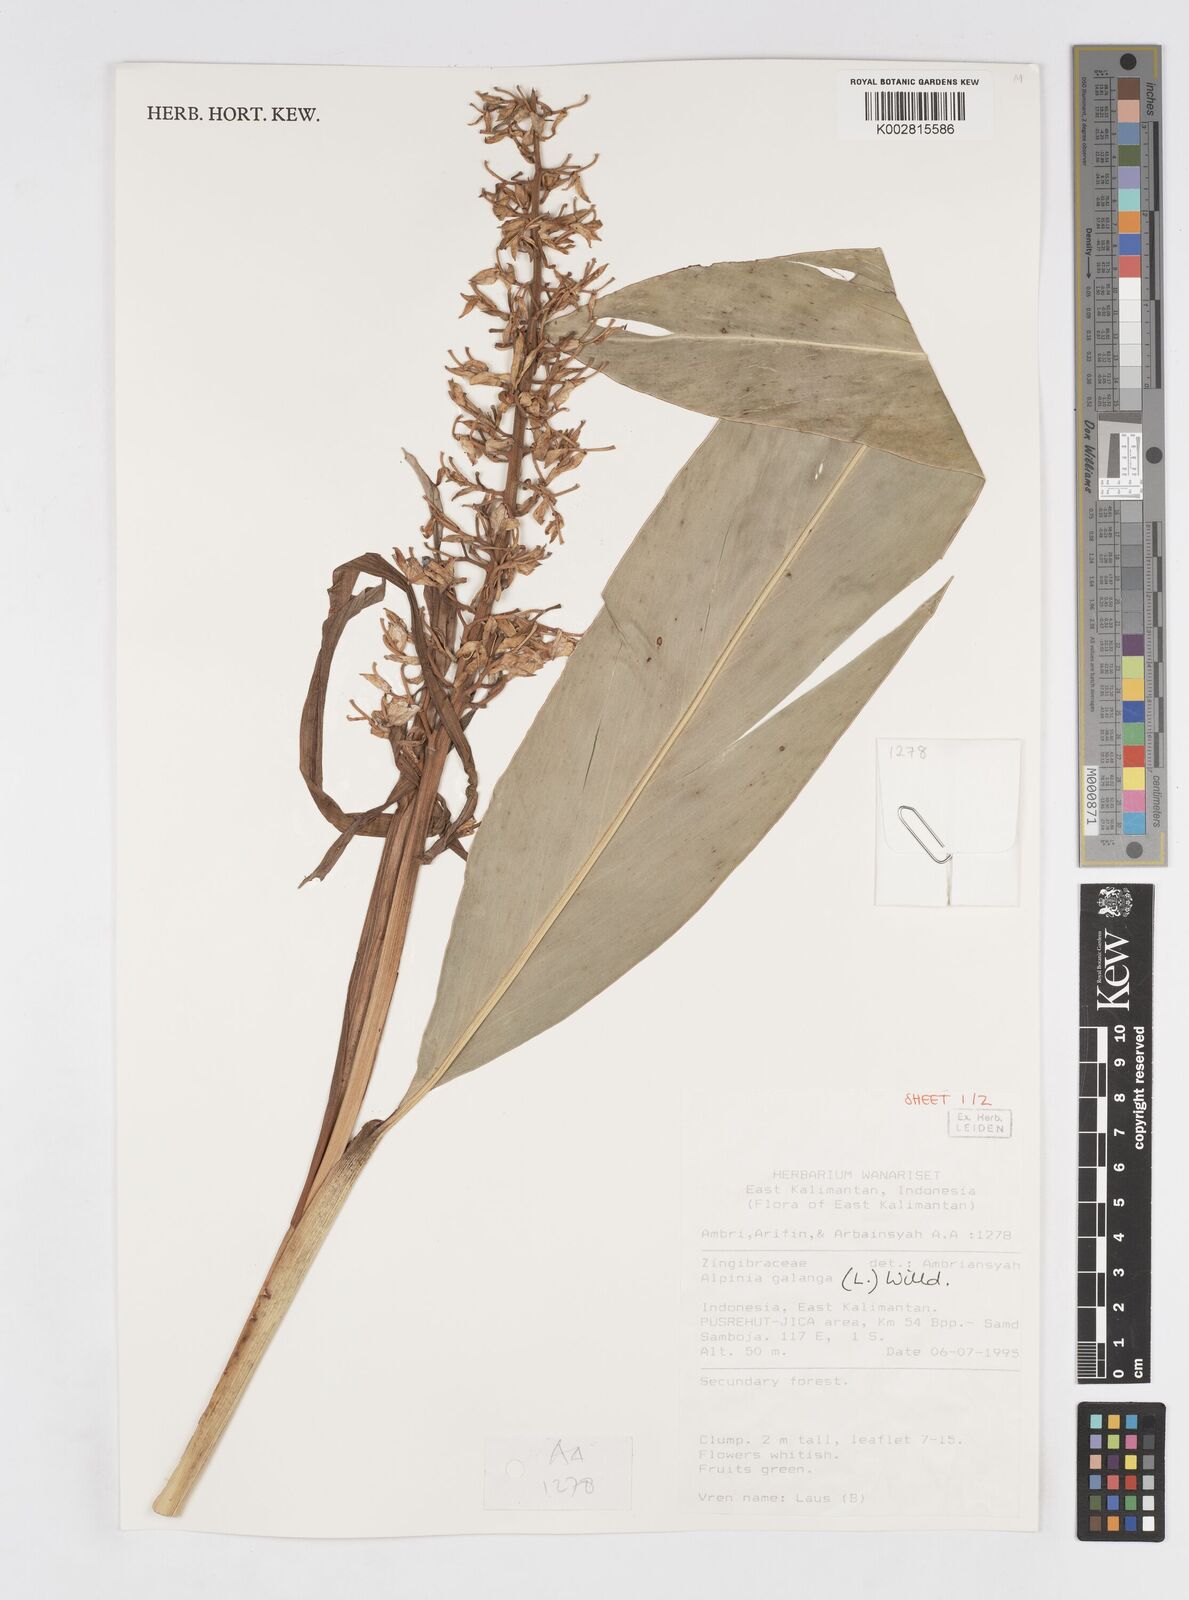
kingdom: Plantae
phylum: Tracheophyta
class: Liliopsida
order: Zingiberales
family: Zingiberaceae
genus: Alpinia
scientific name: Alpinia galanga
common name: Siamese-ginger
